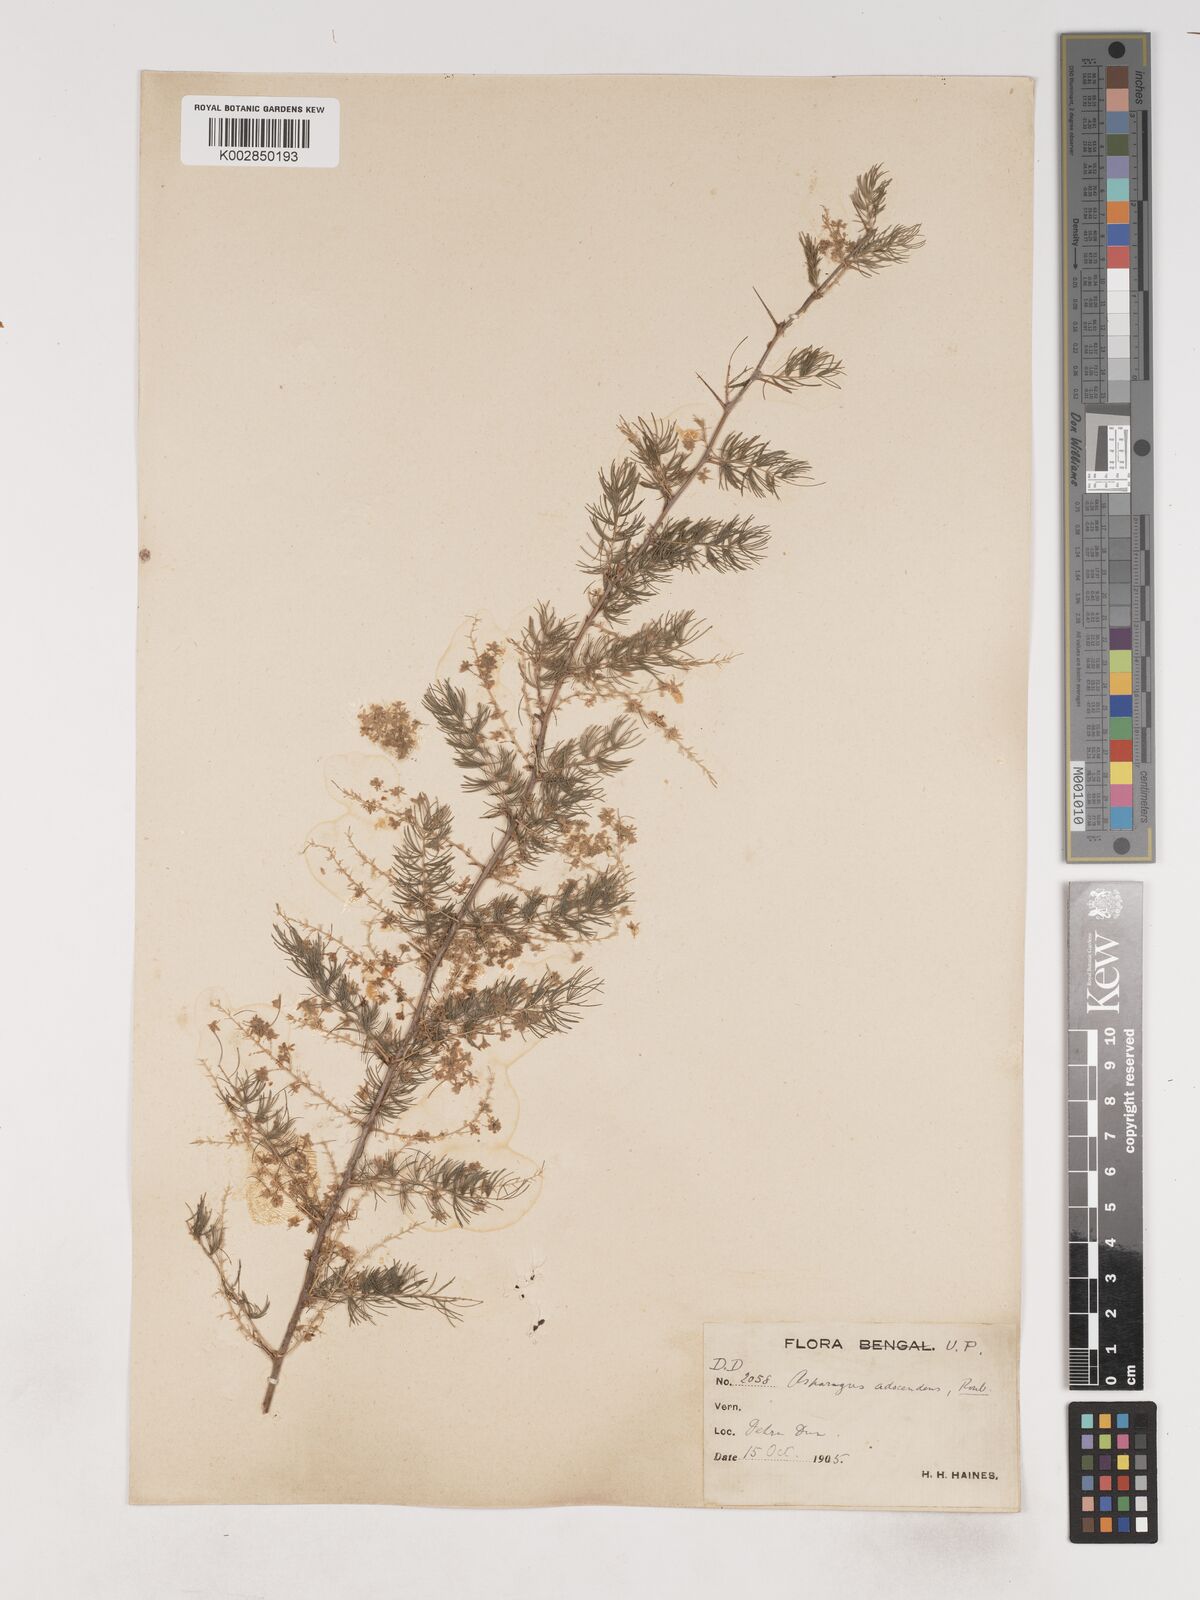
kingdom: Plantae
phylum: Tracheophyta
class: Liliopsida
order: Asparagales
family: Asparagaceae
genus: Asparagus
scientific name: Asparagus adscendens
